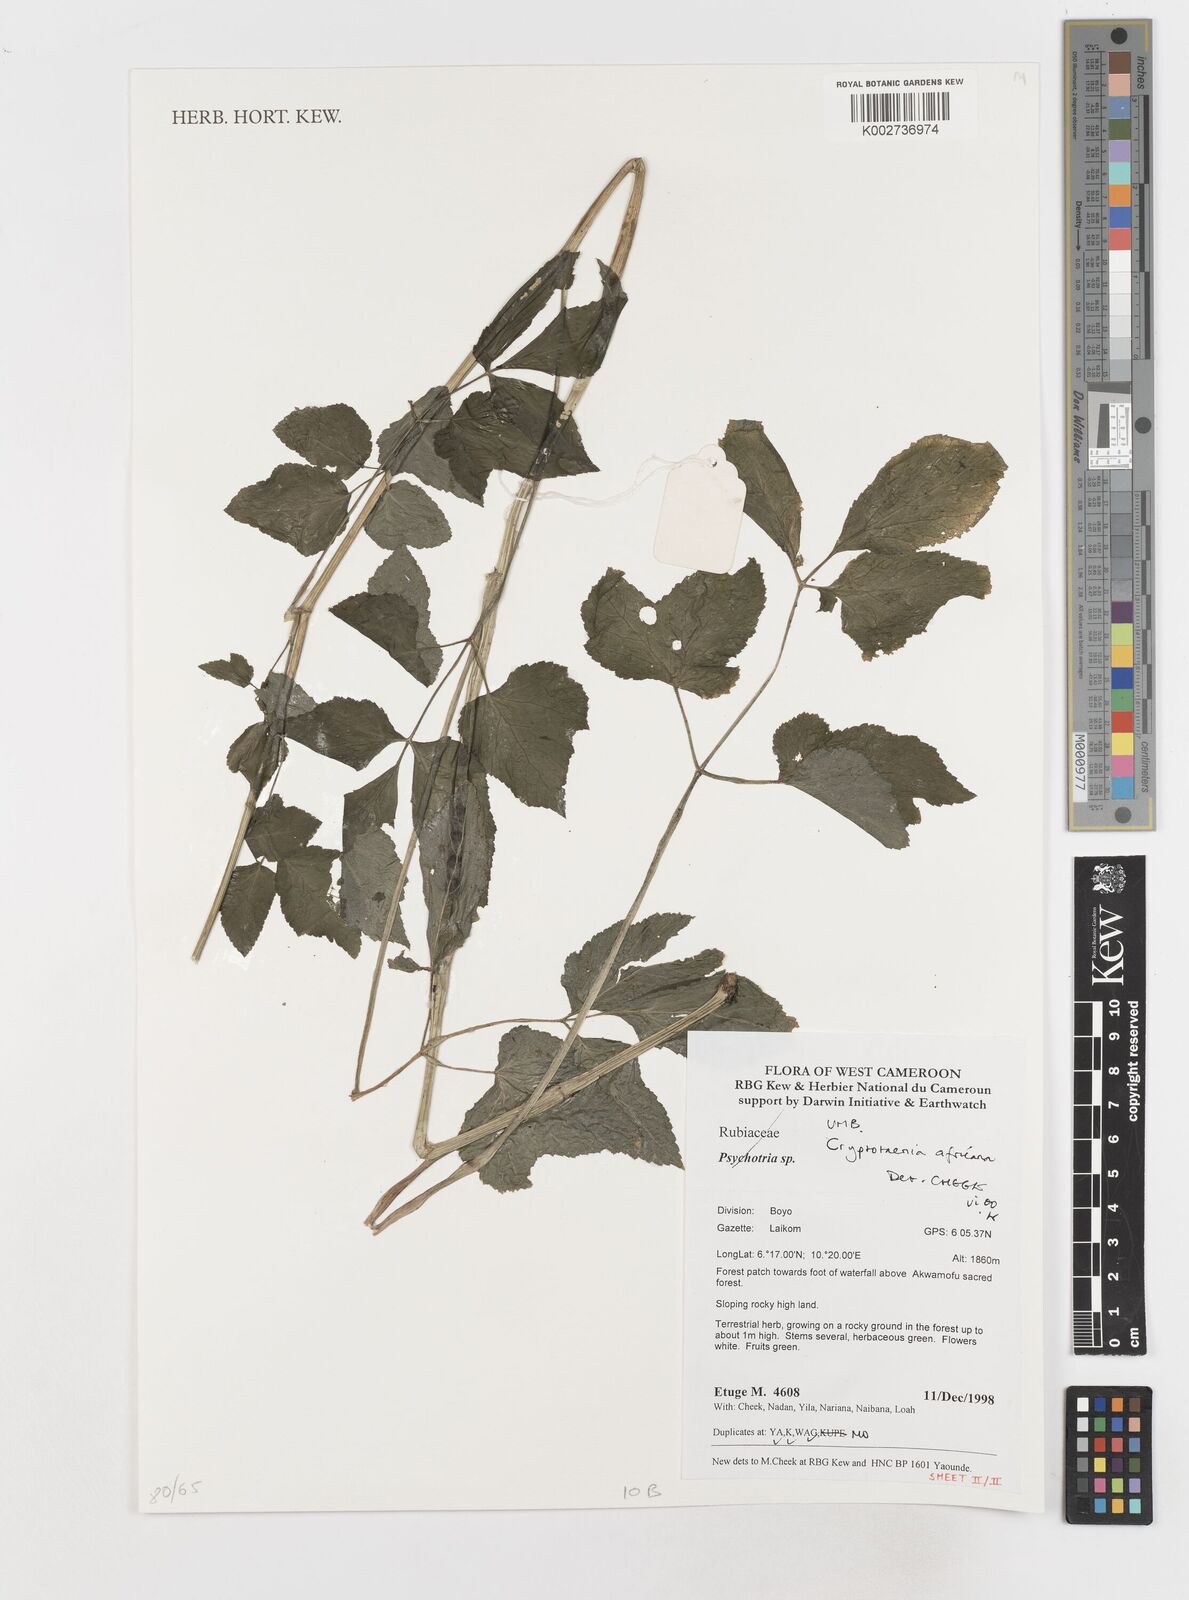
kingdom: Plantae
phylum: Tracheophyta
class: Magnoliopsida
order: Apiales
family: Apiaceae
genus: Cryptotaenia
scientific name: Cryptotaenia africana
